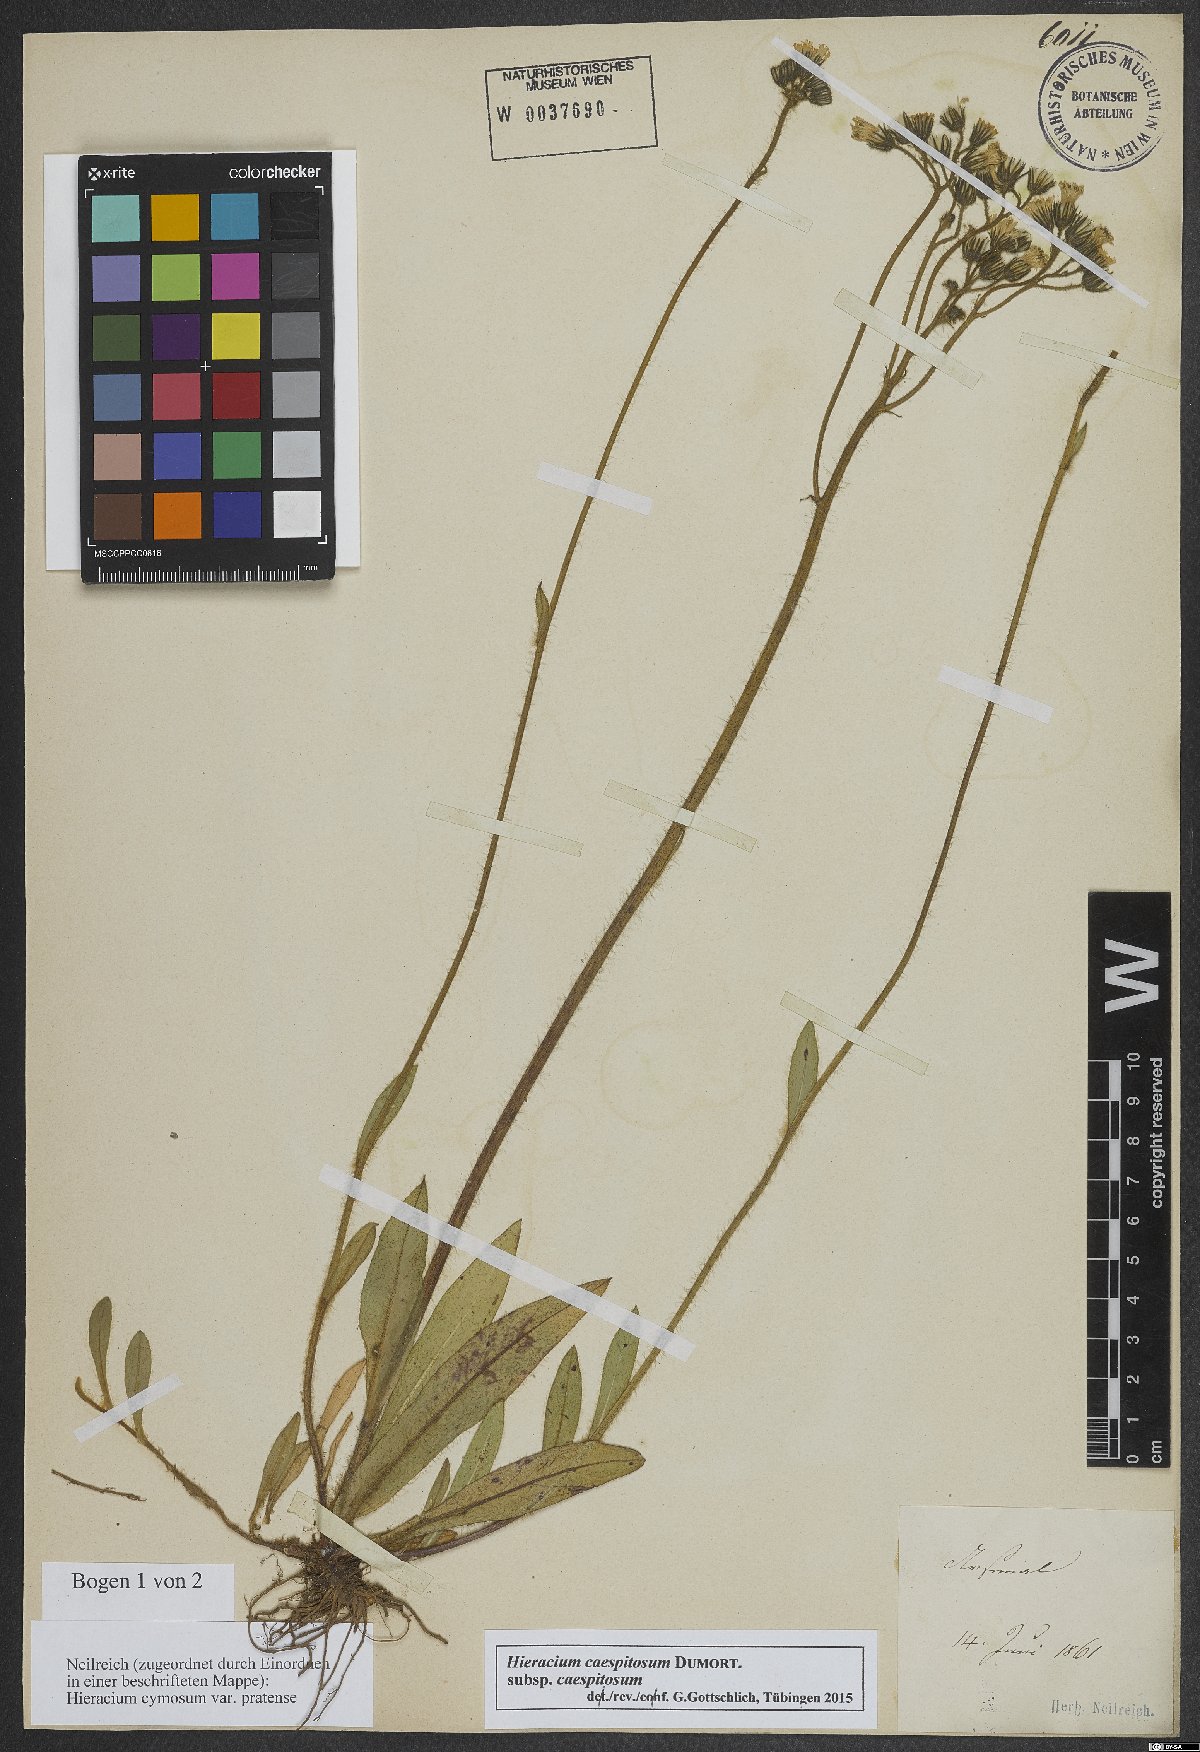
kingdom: Plantae
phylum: Tracheophyta
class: Magnoliopsida
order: Asterales
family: Asteraceae
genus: Pilosella
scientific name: Pilosella caespitosa
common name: Yellow fox-and-cubs
